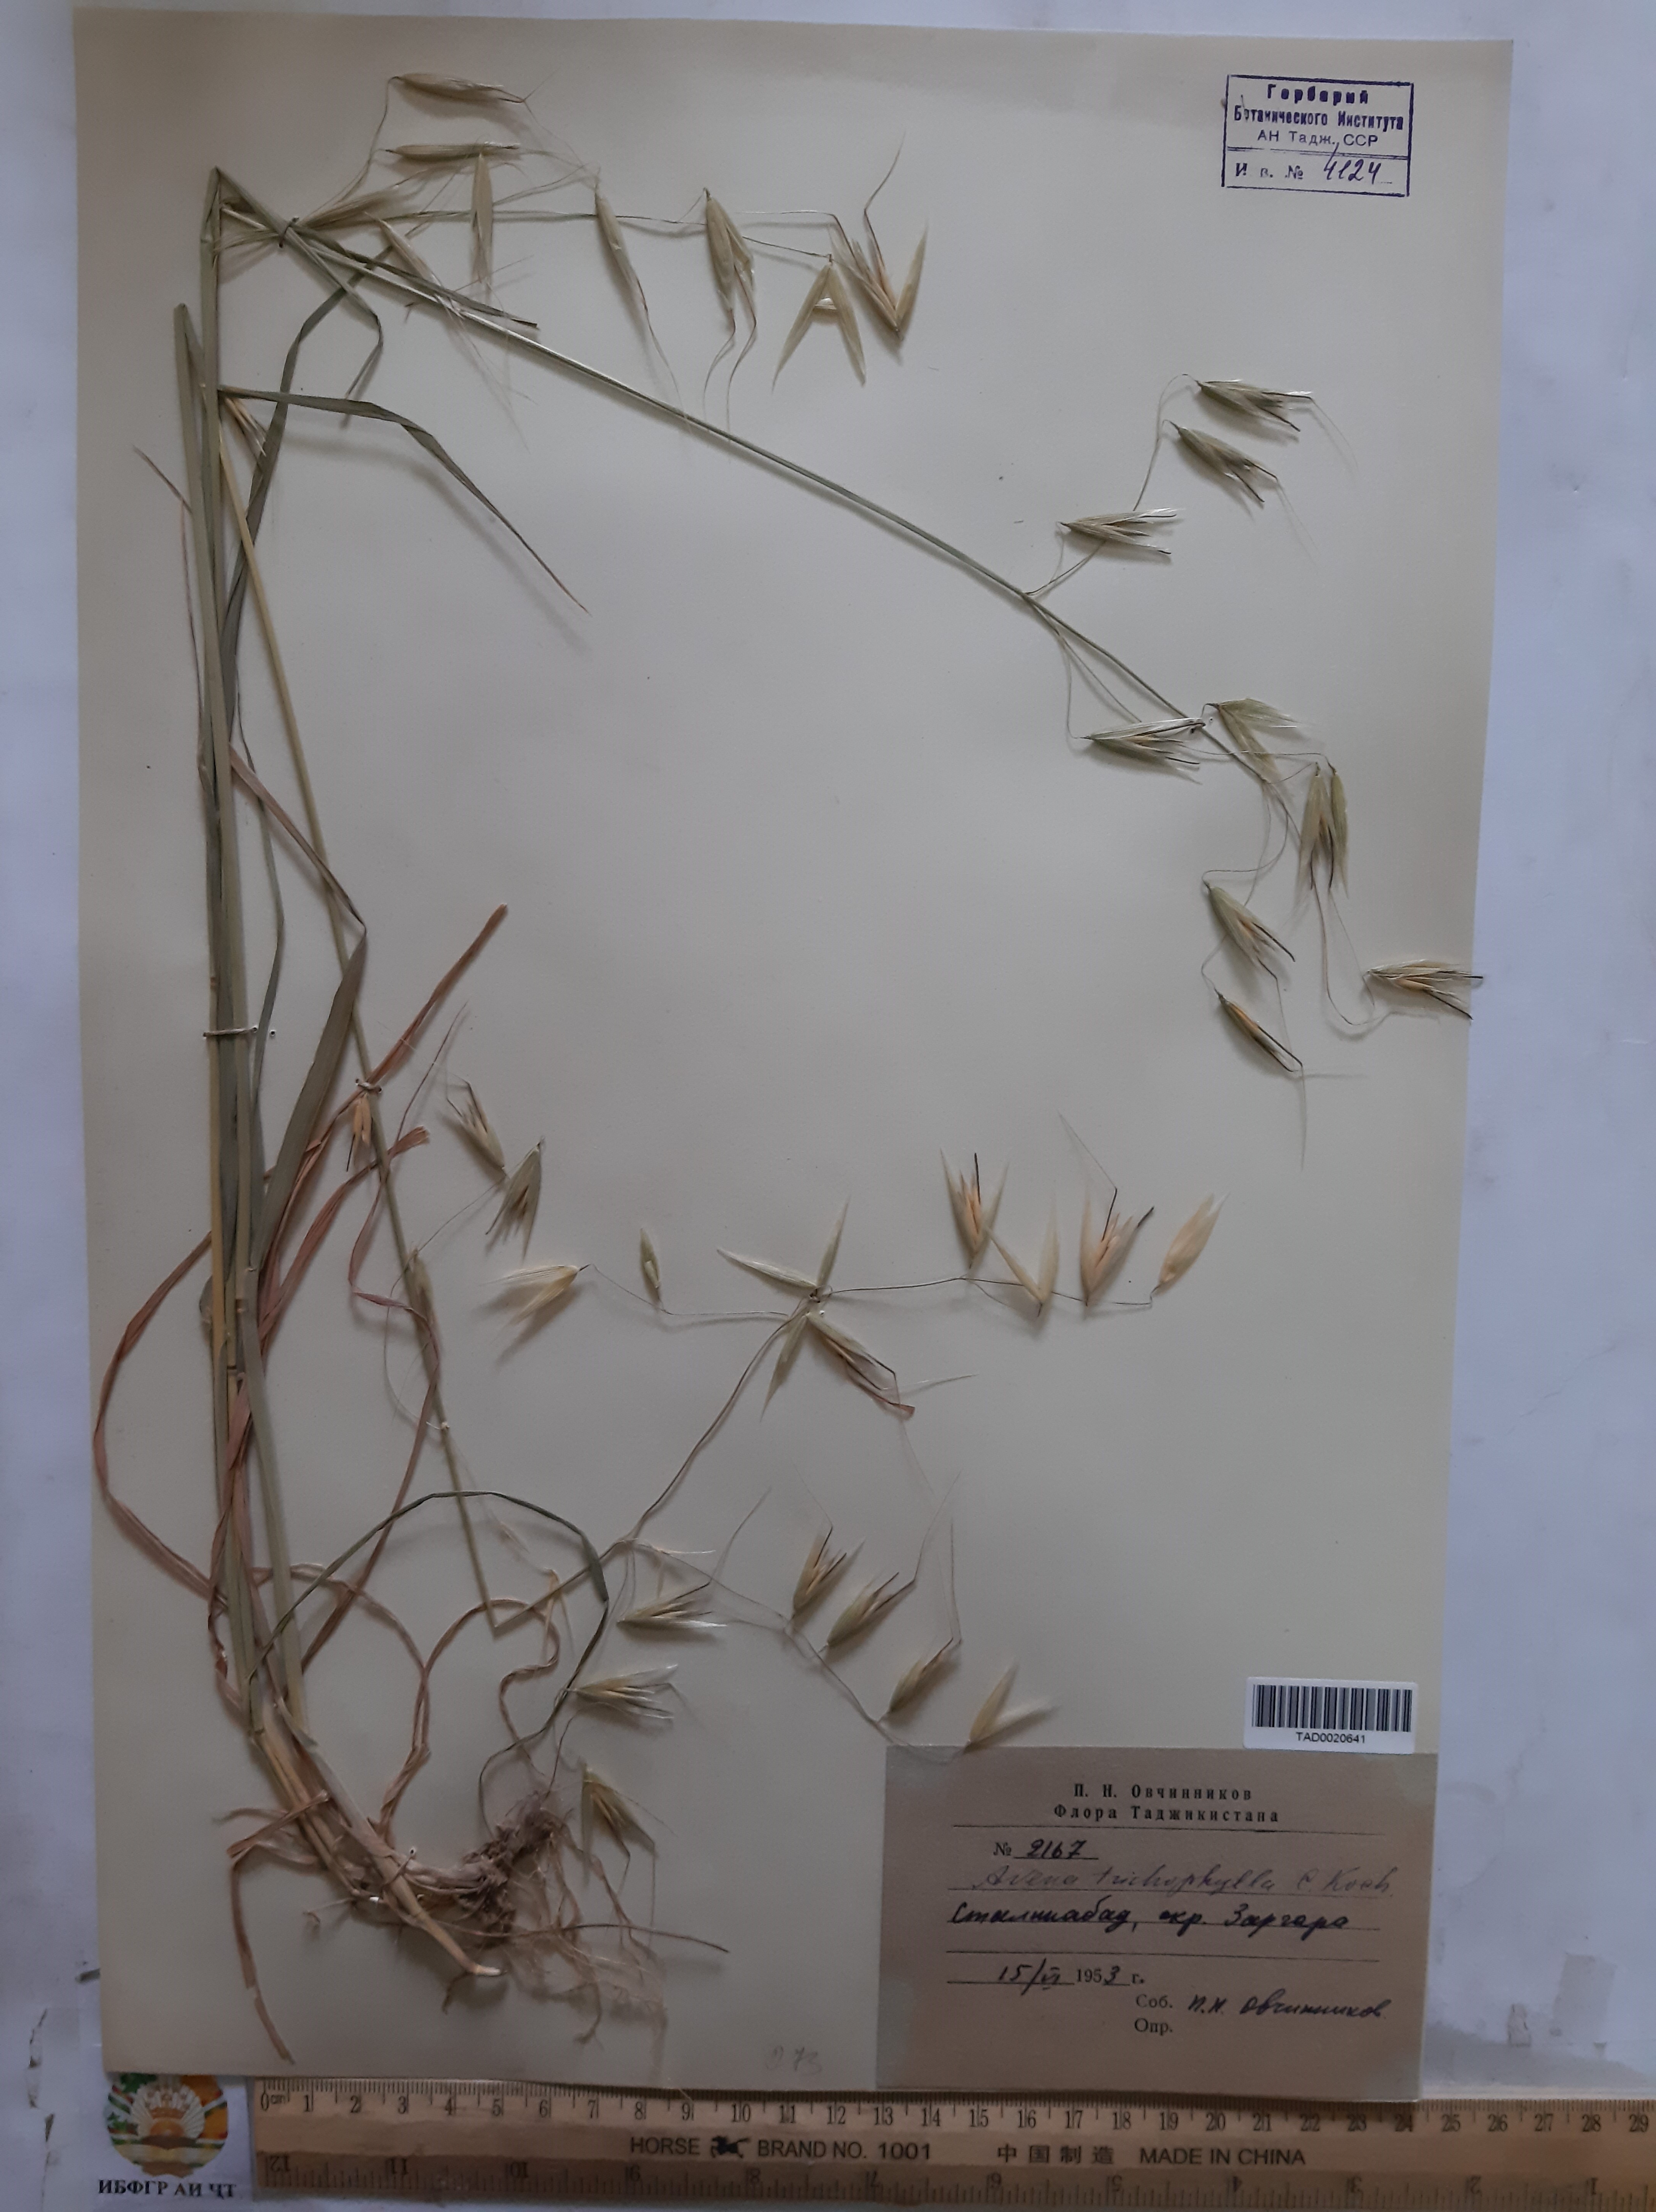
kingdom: Plantae
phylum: Tracheophyta
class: Liliopsida
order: Poales
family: Poaceae
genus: Avena
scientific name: Avena sterilis
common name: Animated oat
